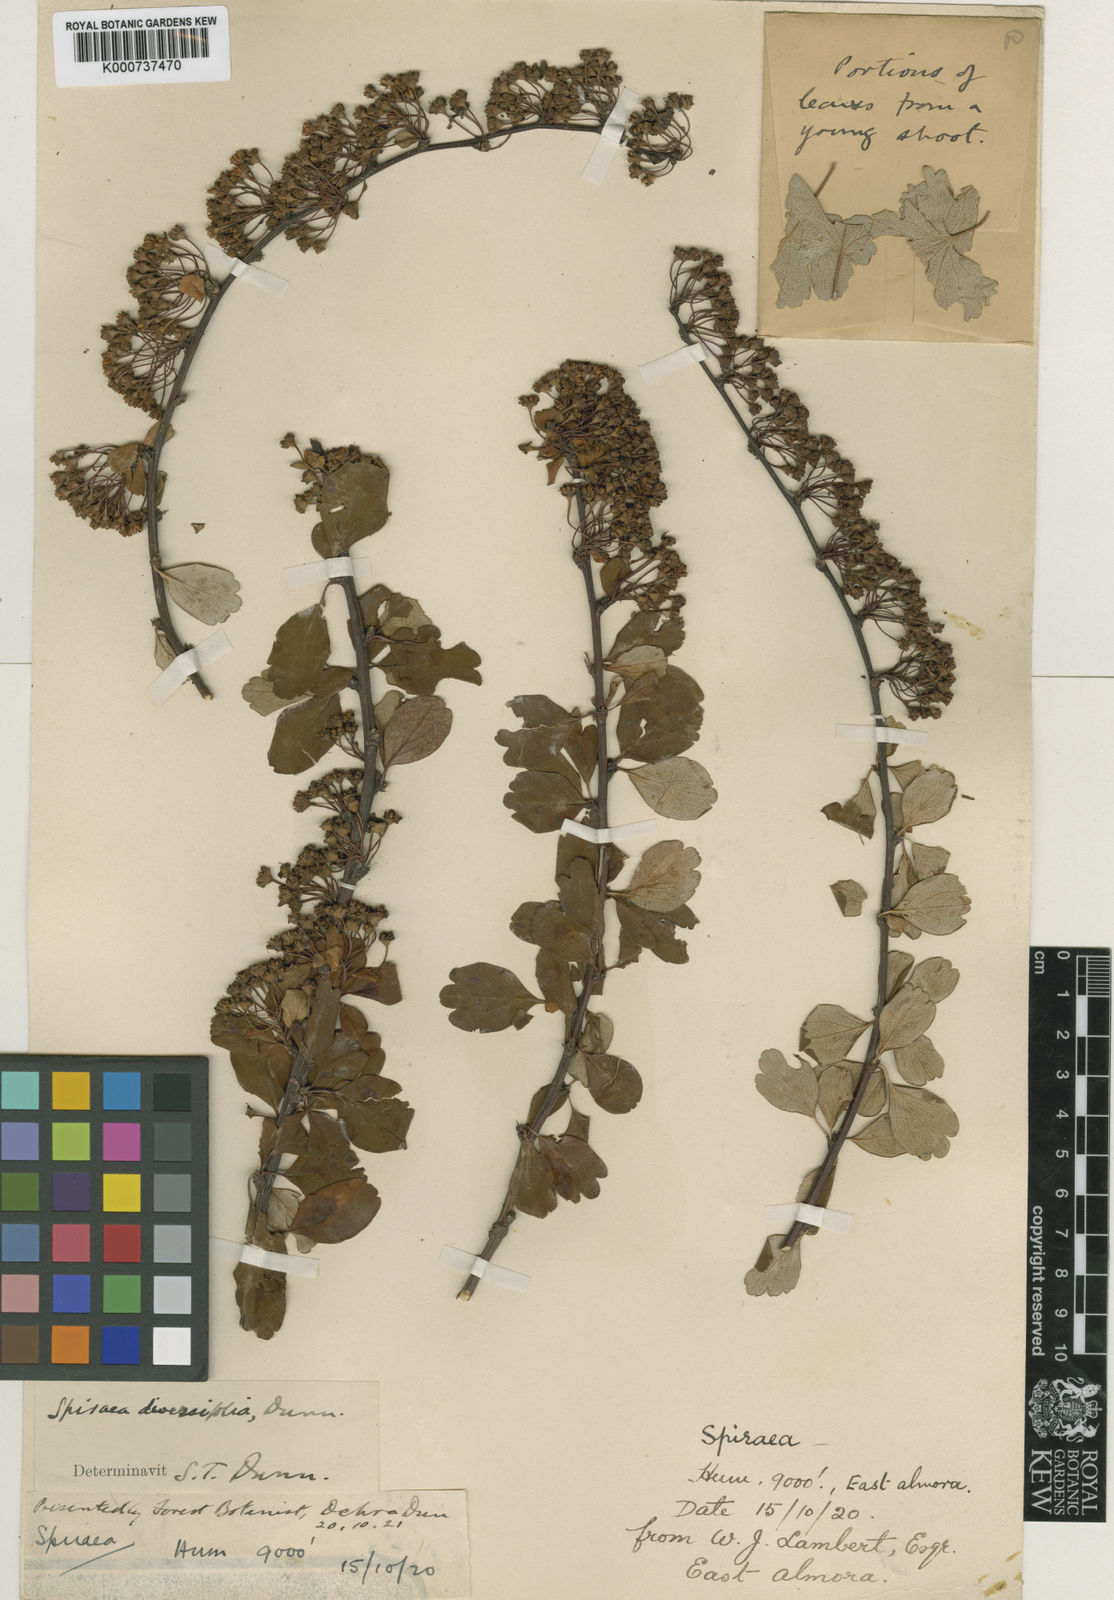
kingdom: Plantae
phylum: Tracheophyta
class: Magnoliopsida
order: Rosales
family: Rosaceae
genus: Spiraea
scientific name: Spiraea diversifolia
